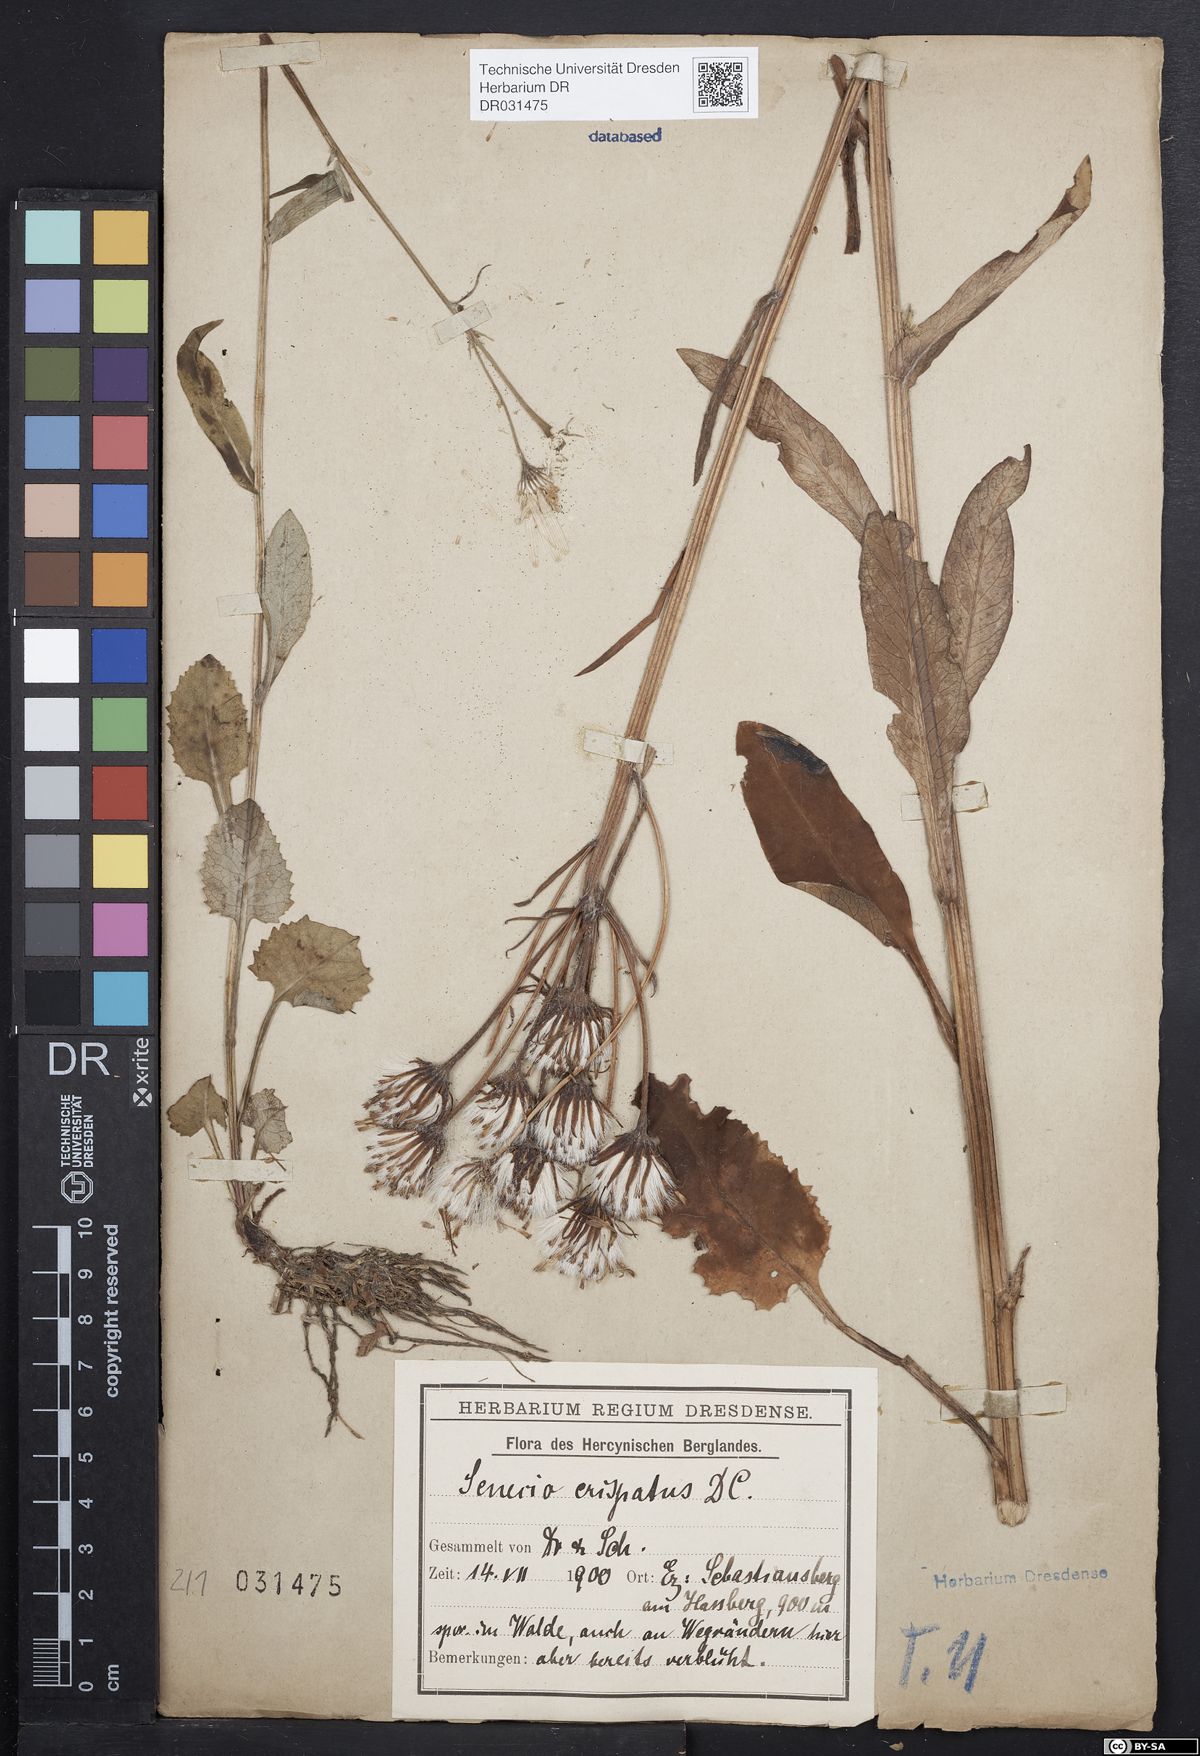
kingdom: Plantae
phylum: Tracheophyta
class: Magnoliopsida
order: Asterales
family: Asteraceae
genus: Tephroseris
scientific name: Tephroseris crispa
